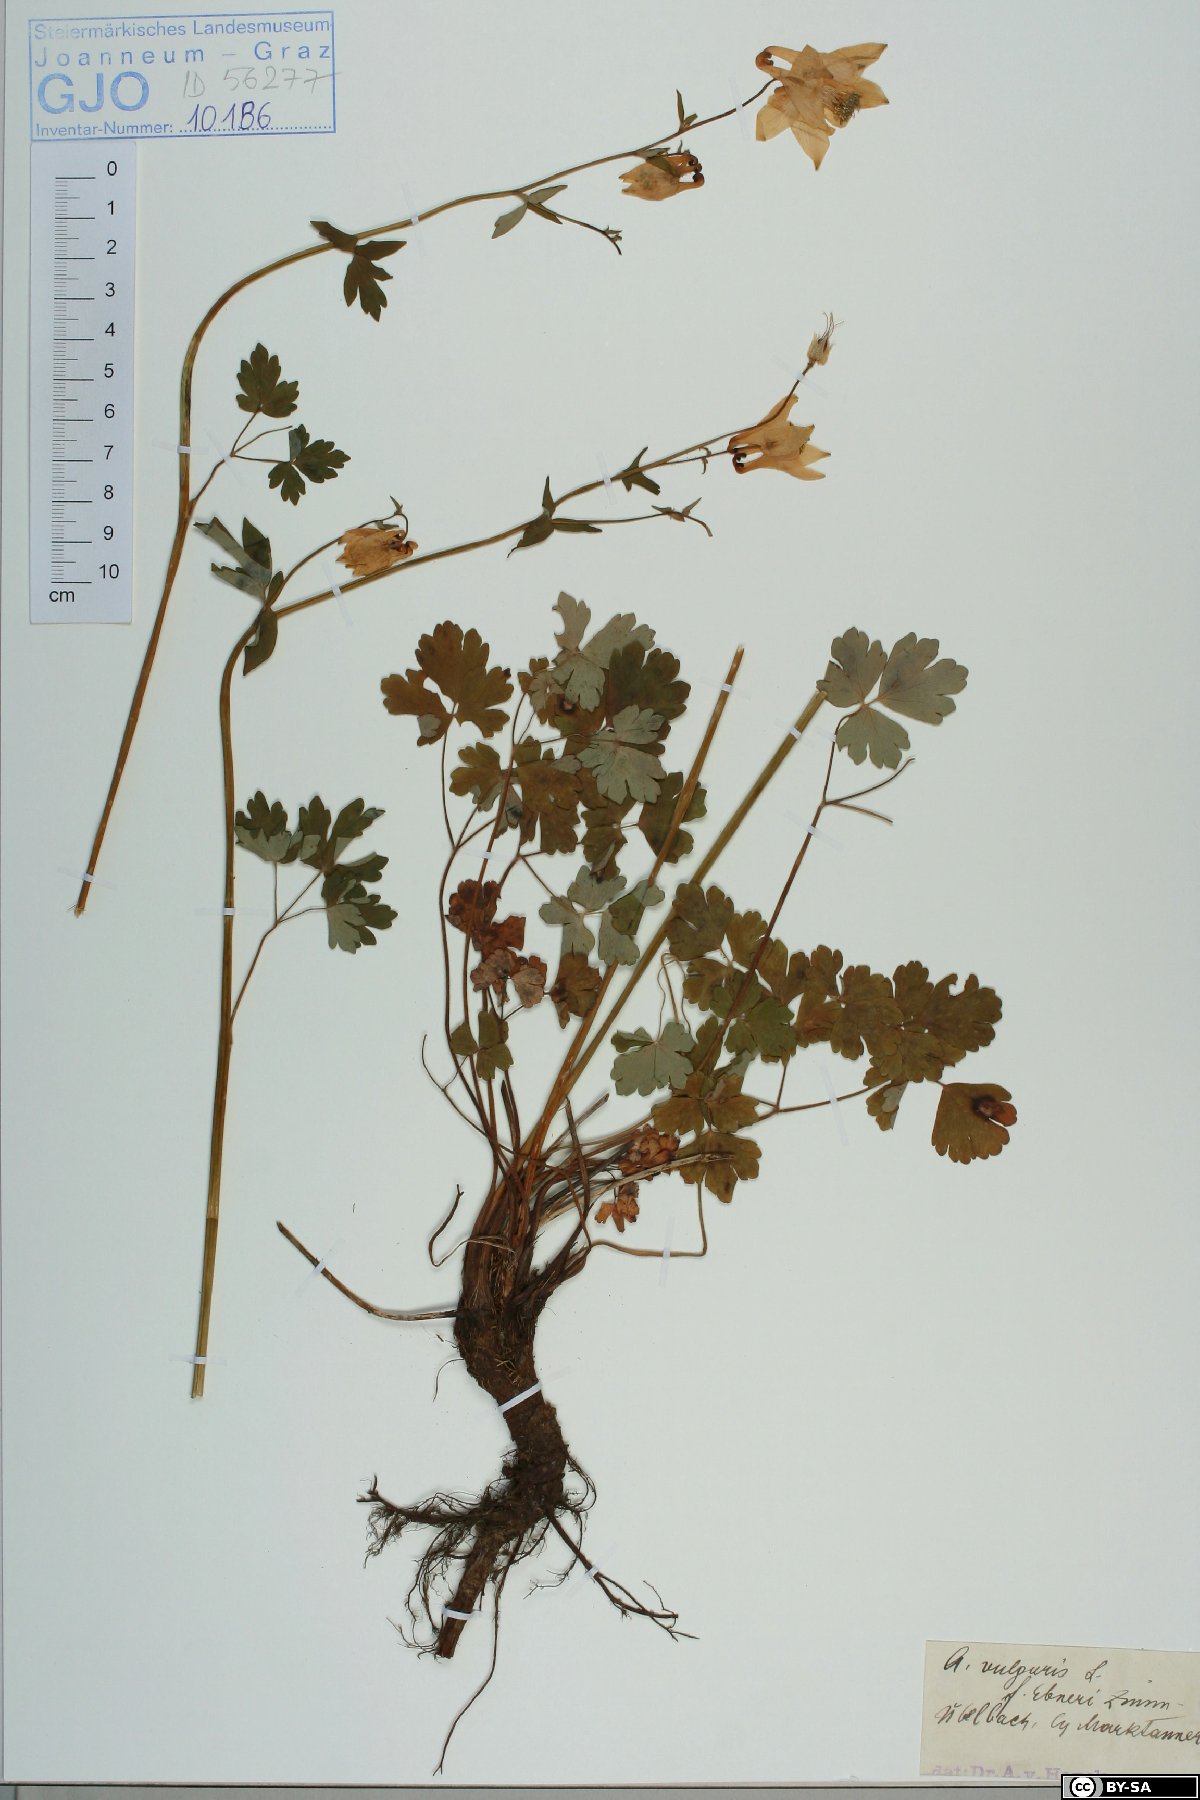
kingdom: Plantae
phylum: Tracheophyta
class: Magnoliopsida
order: Ranunculales
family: Ranunculaceae
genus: Aquilegia
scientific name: Aquilegia vulgaris
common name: Columbine
